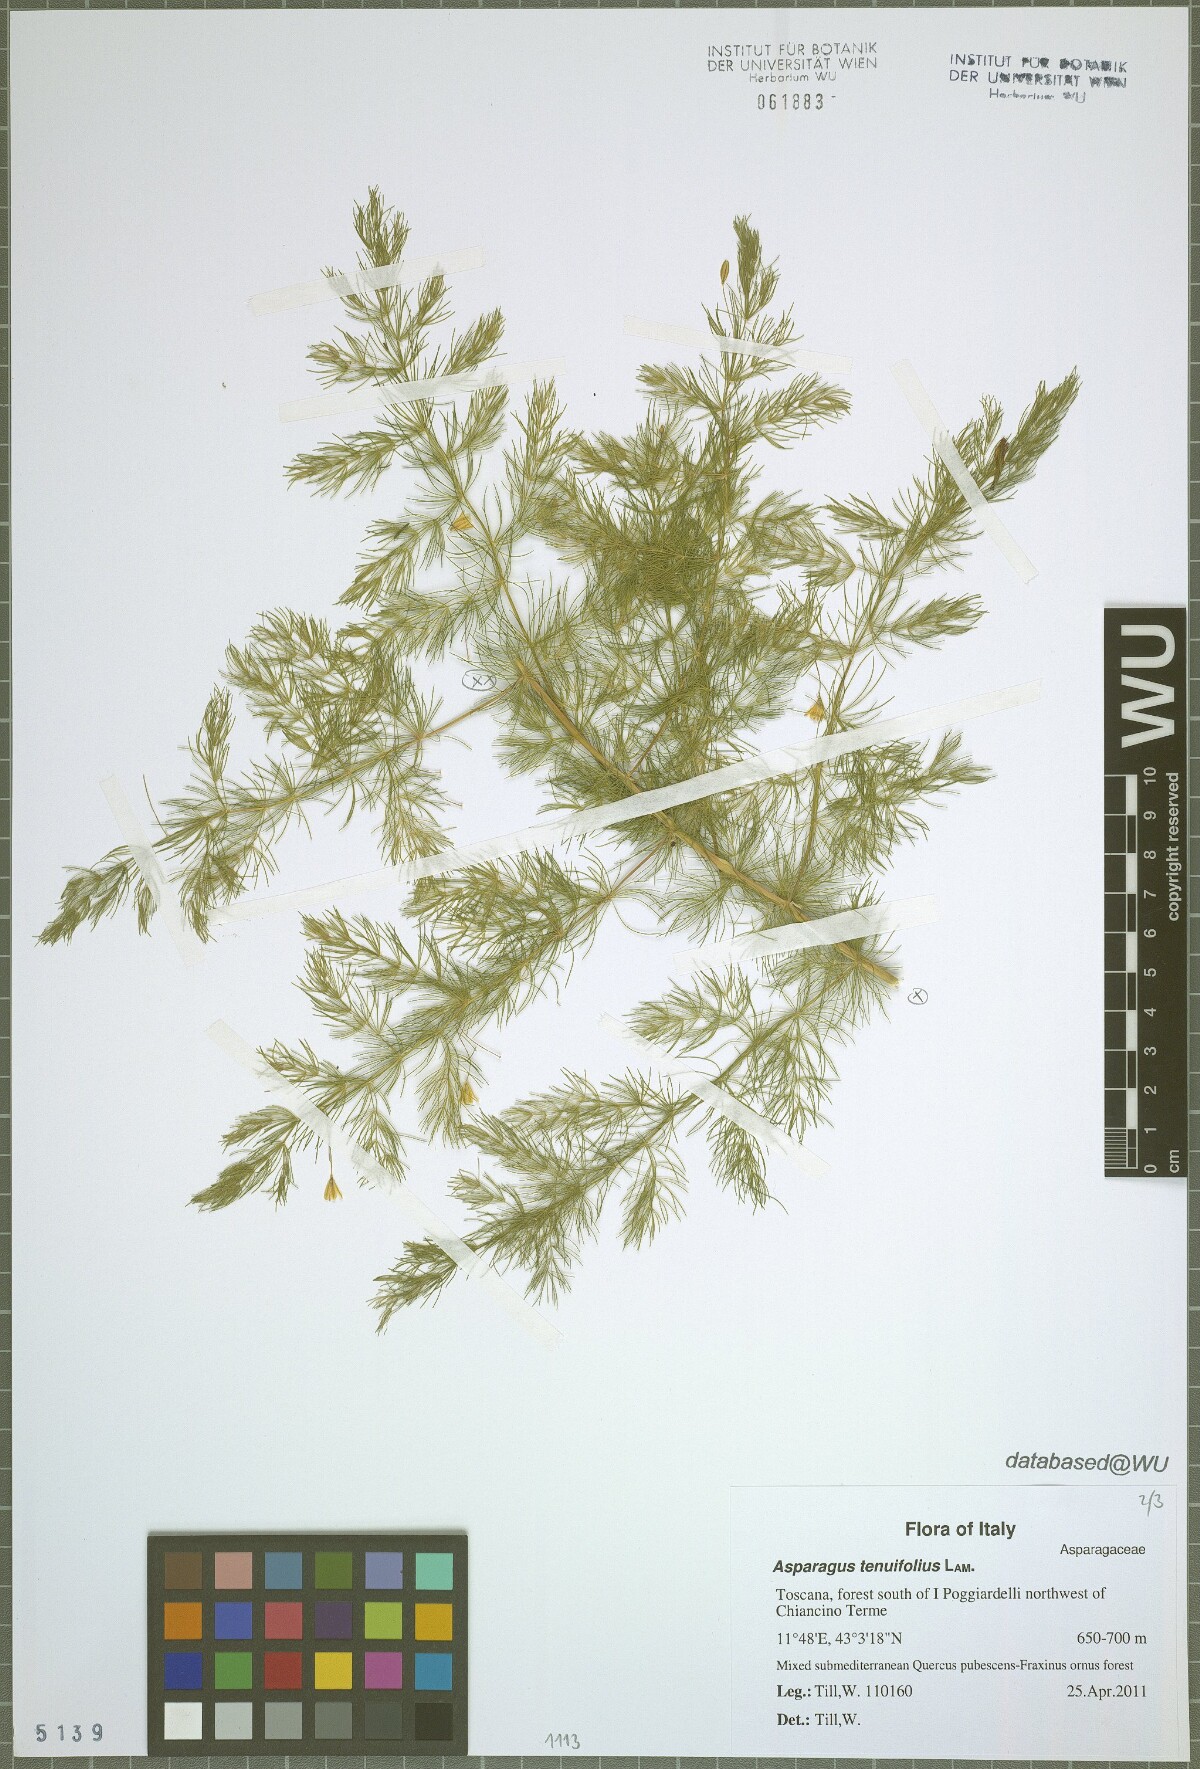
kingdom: Plantae
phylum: Tracheophyta
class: Liliopsida
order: Asparagales
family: Asparagaceae
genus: Asparagus
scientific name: Asparagus tenuifolius
